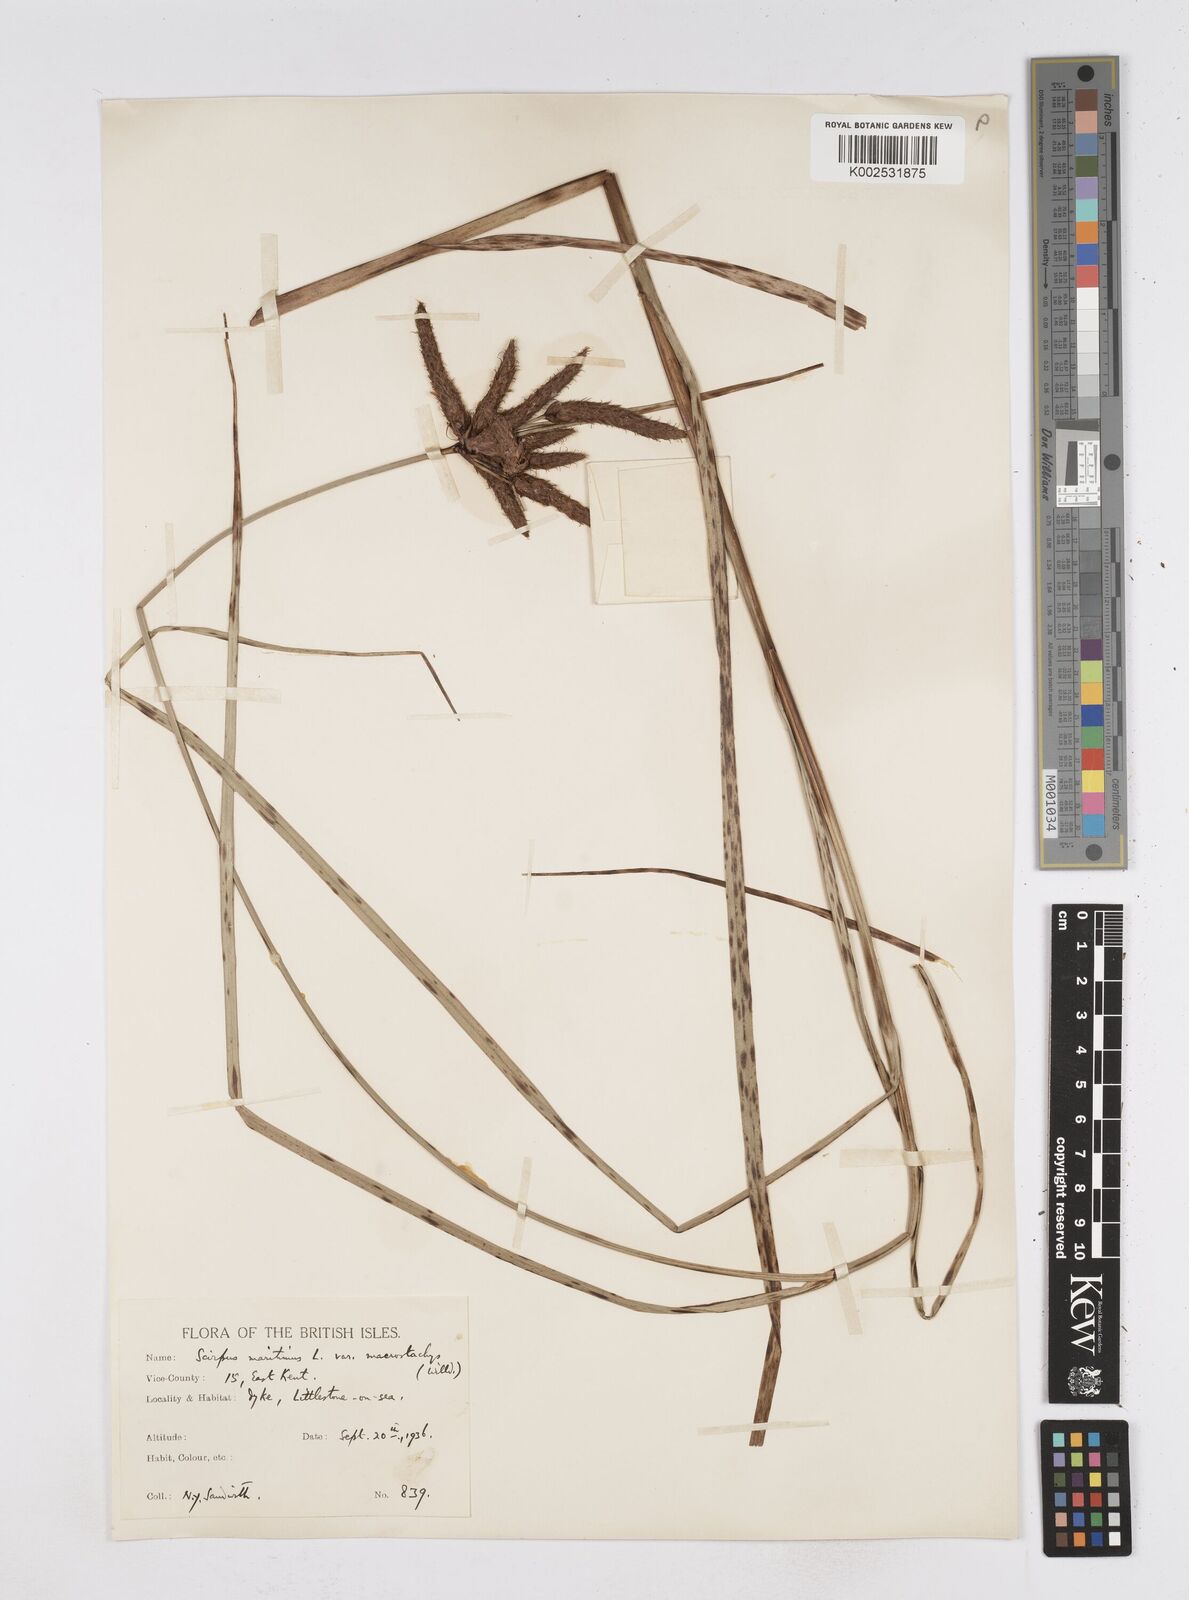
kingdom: Plantae
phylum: Tracheophyta
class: Liliopsida
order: Poales
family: Cyperaceae
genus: Bolboschoenus
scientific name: Bolboschoenus maritimus
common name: Sea club-rush
